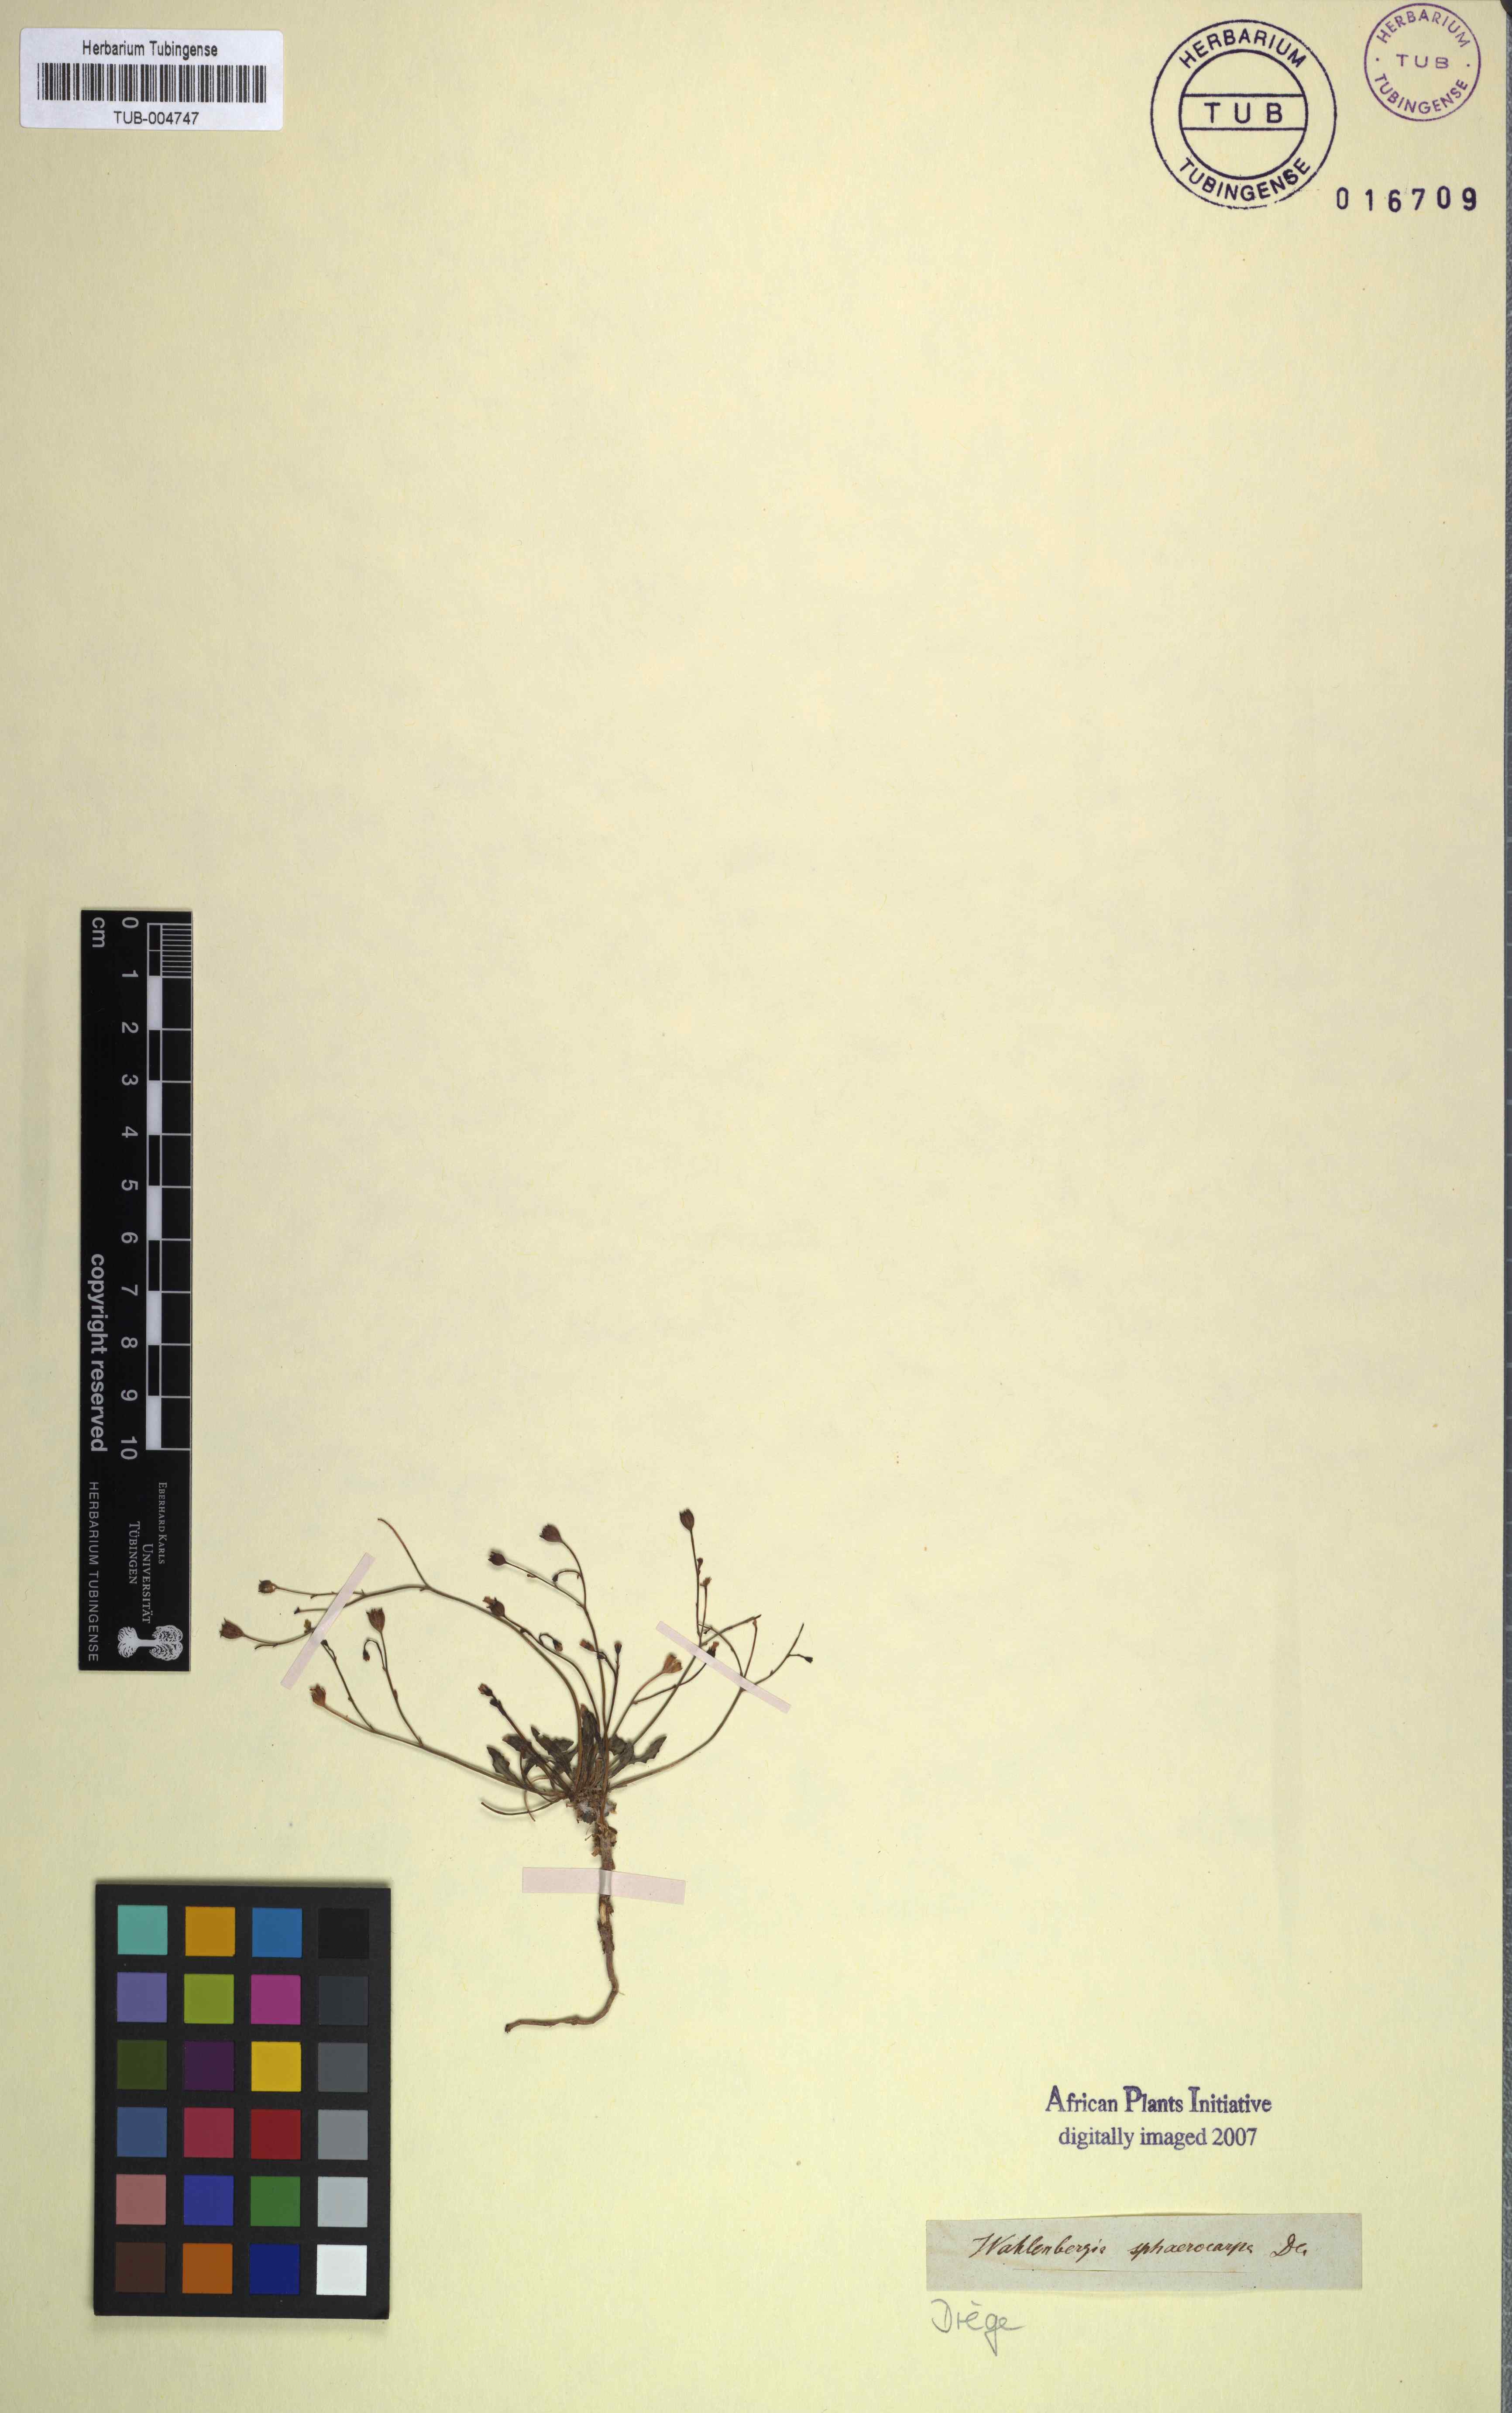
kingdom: Plantae
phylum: Tracheophyta
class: Magnoliopsida
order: Asterales
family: Campanulaceae
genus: Wahlenbergia
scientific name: Wahlenbergia androsacea
